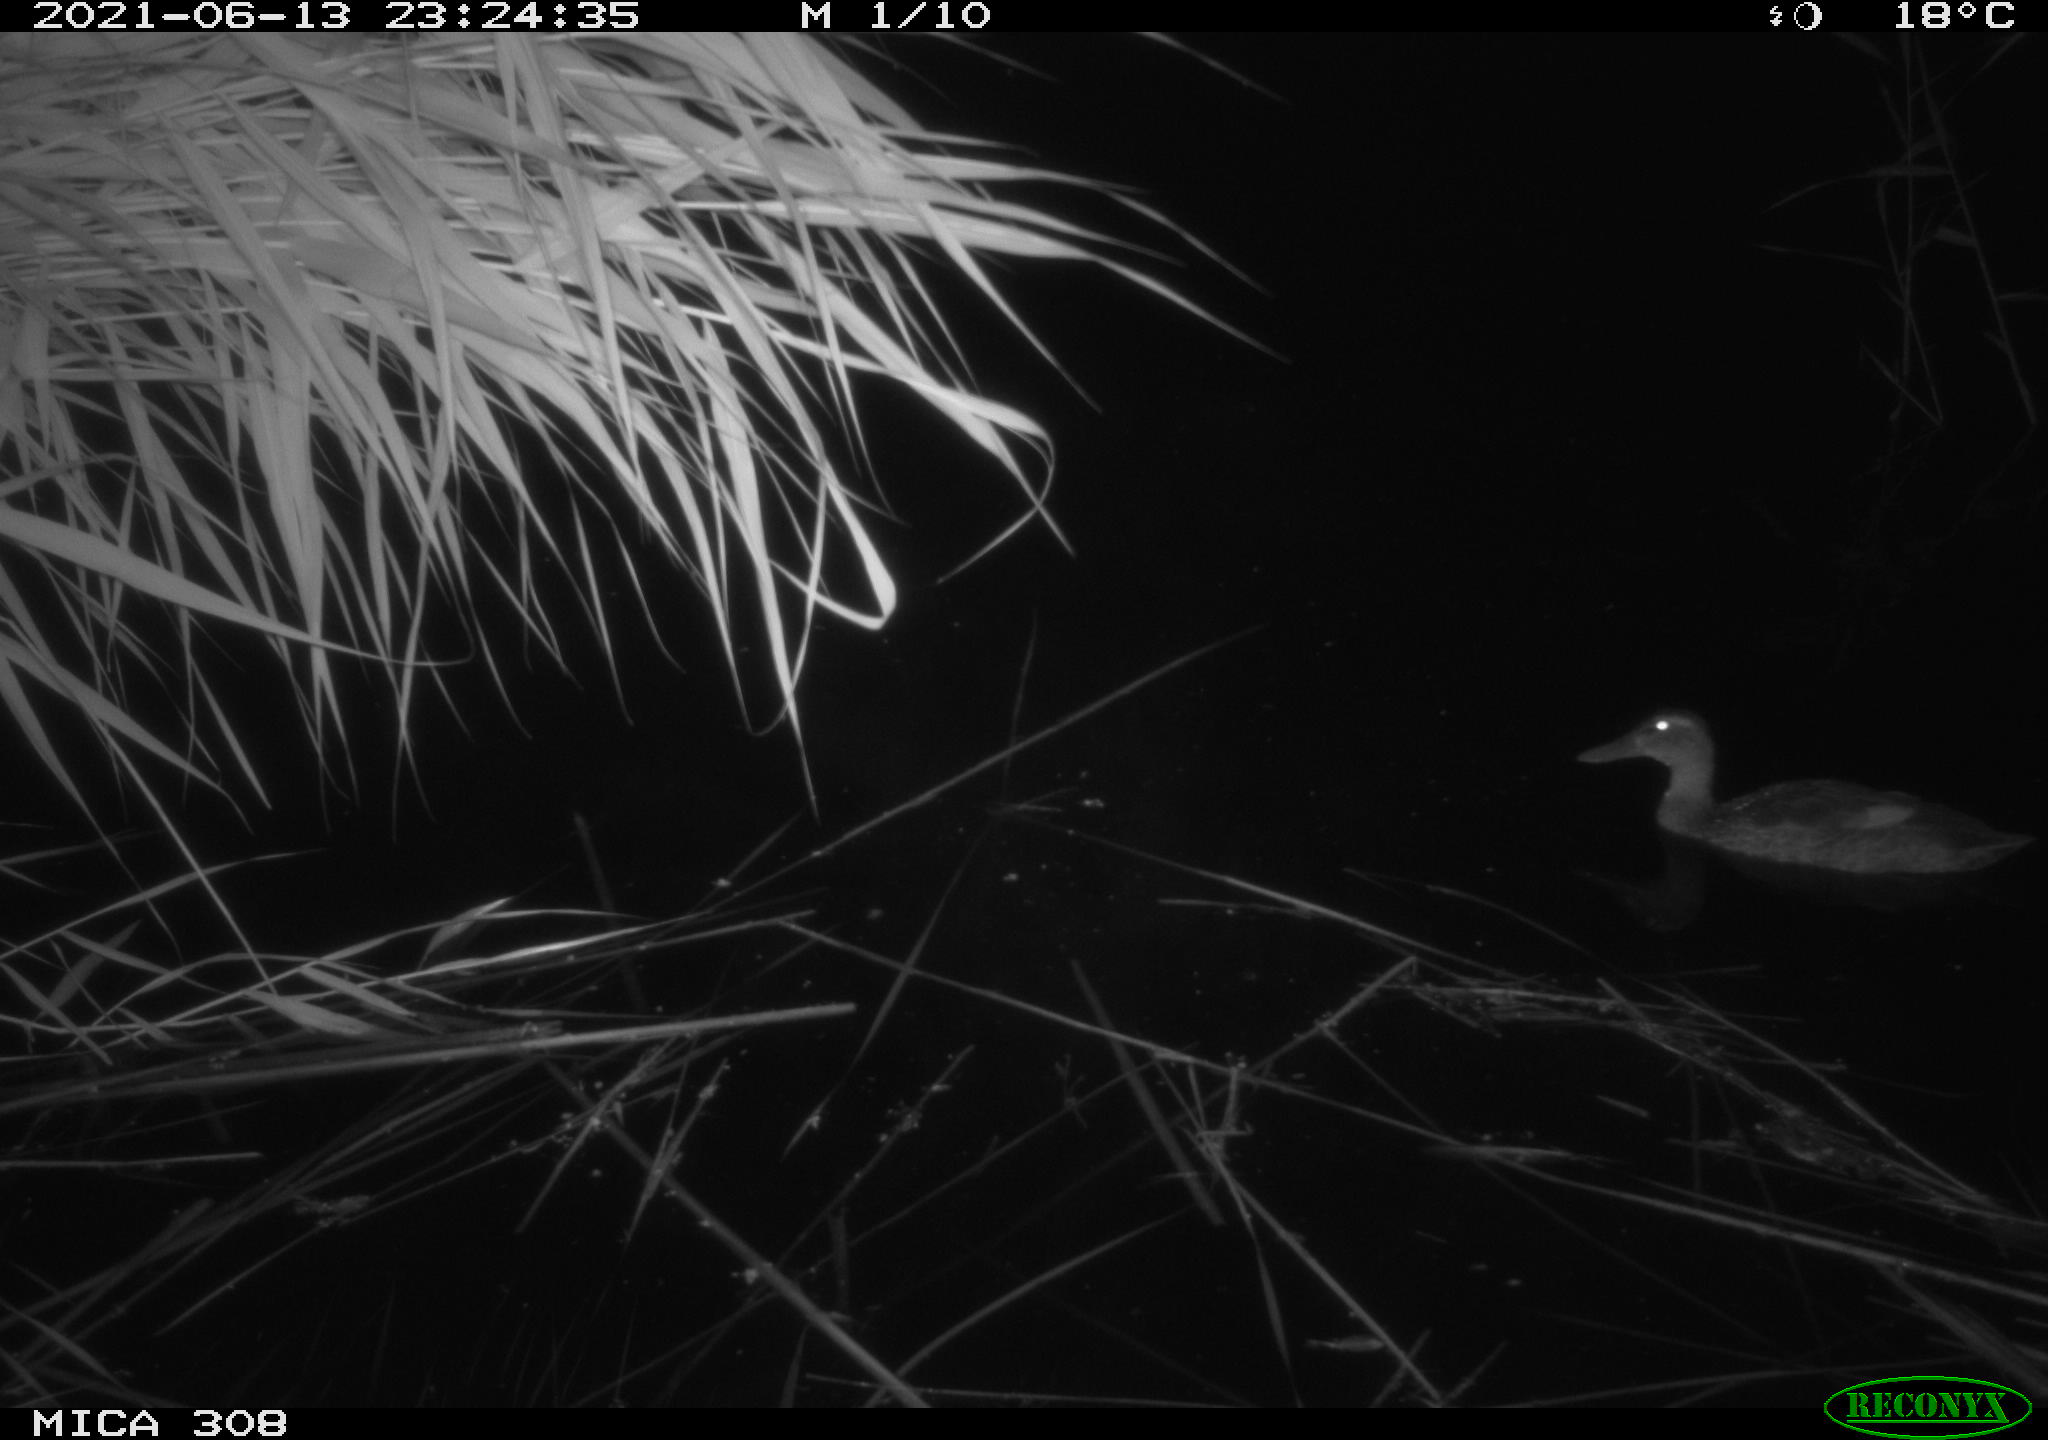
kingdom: Animalia
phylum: Chordata
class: Aves
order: Anseriformes
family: Anatidae
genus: Anas
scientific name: Anas platyrhynchos
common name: Mallard
